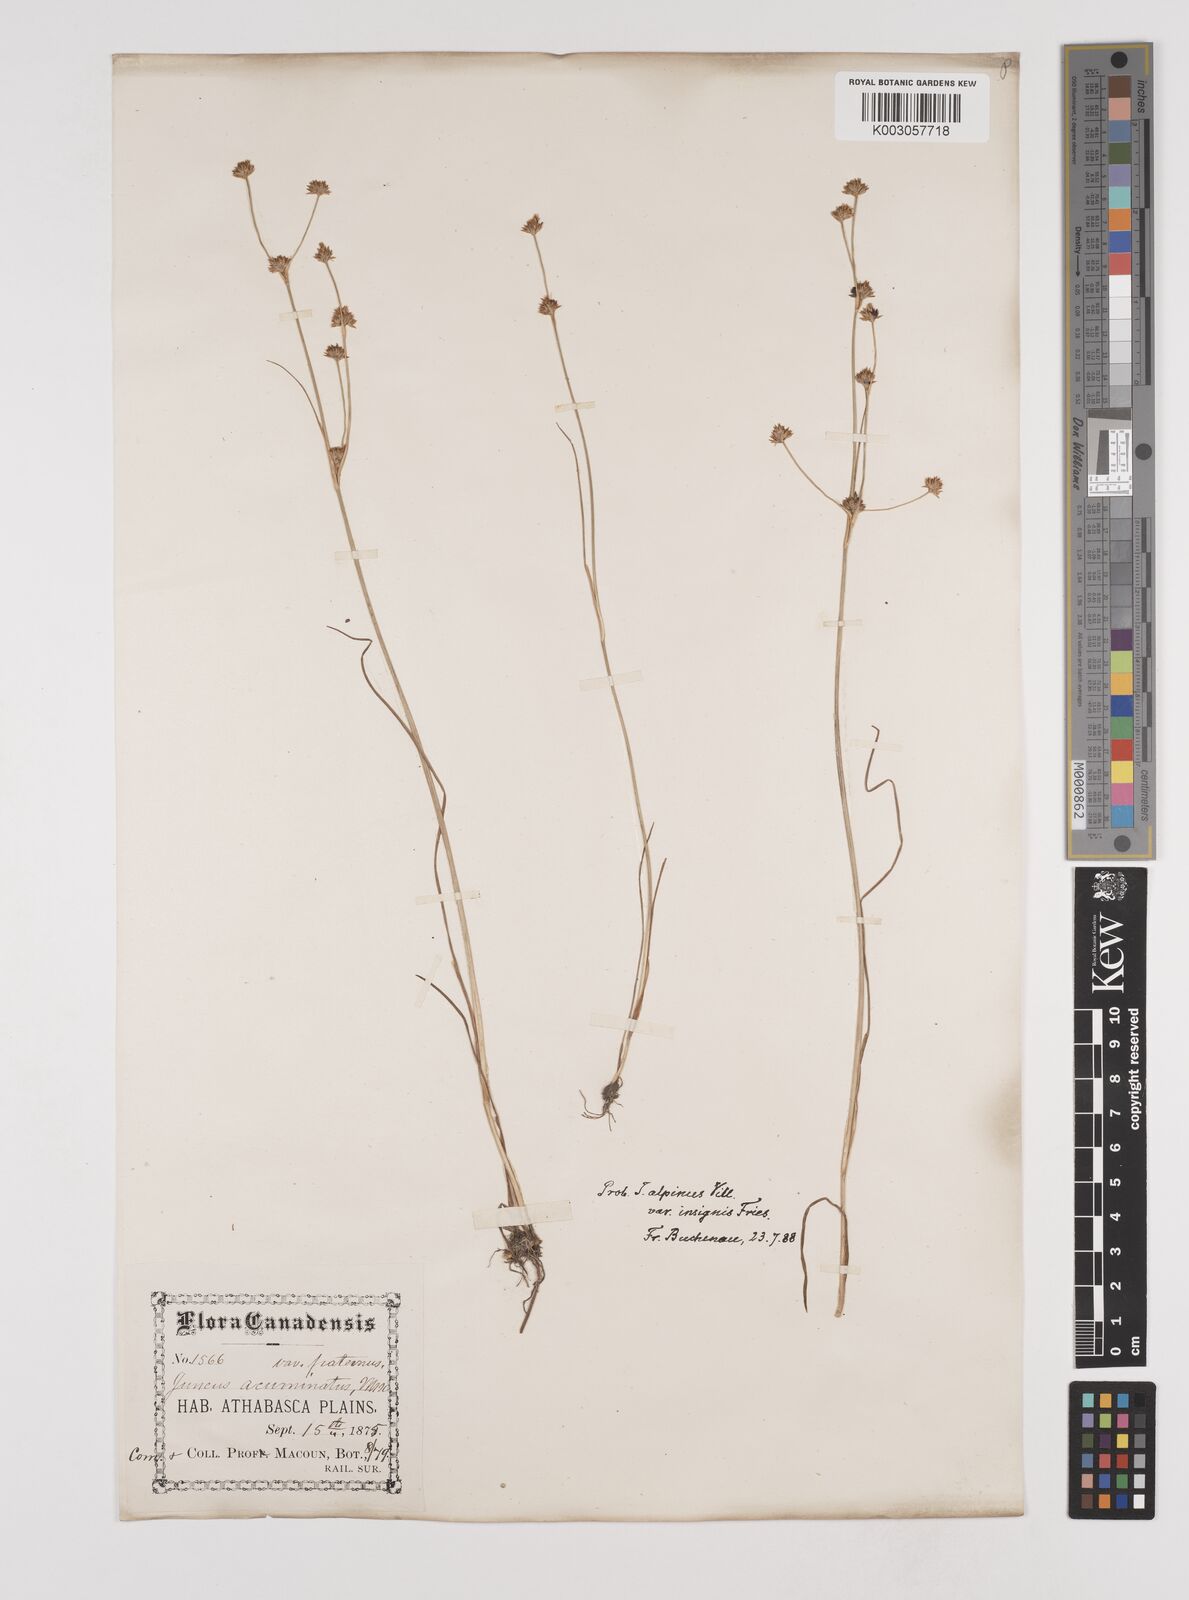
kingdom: Plantae
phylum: Tracheophyta
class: Liliopsida
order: Poales
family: Juncaceae
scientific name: Juncaceae
